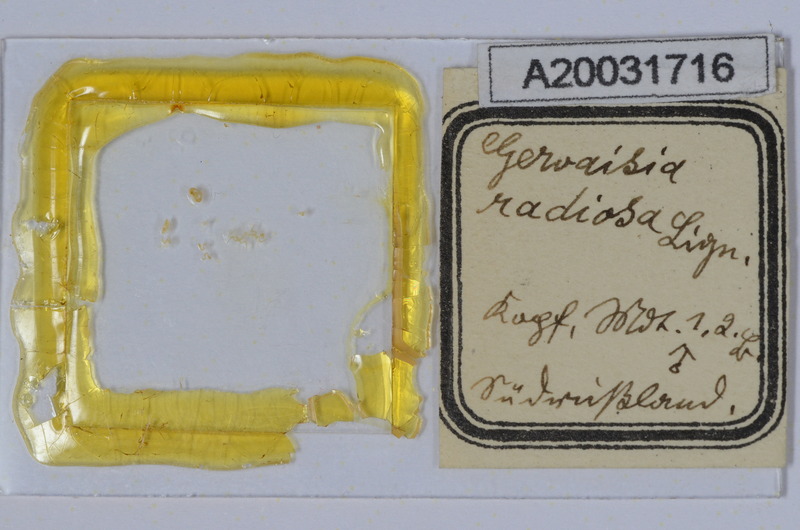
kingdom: Animalia
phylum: Arthropoda
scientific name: Arthropoda
